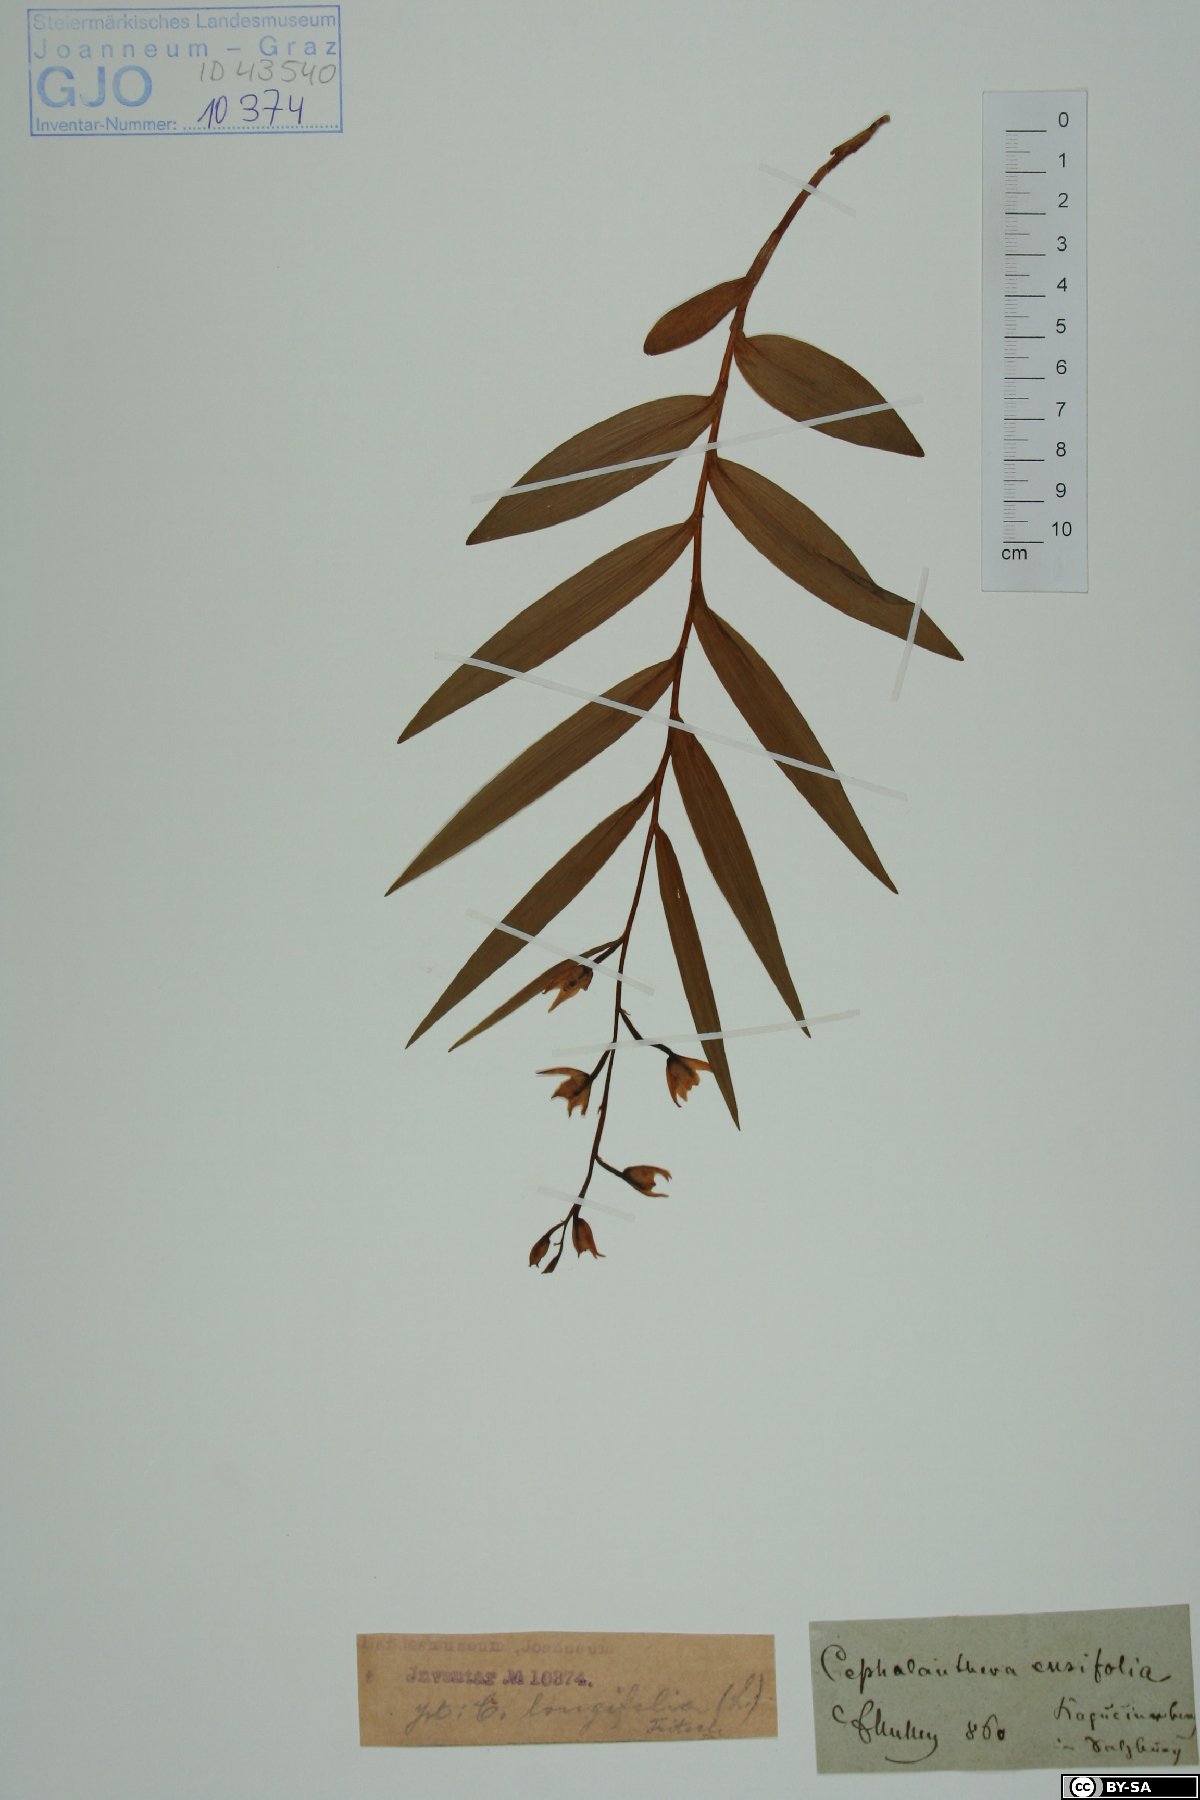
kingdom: Plantae
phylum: Tracheophyta
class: Liliopsida
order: Asparagales
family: Orchidaceae
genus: Cephalanthera
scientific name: Cephalanthera longifolia
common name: Narrow-leaved helleborine
